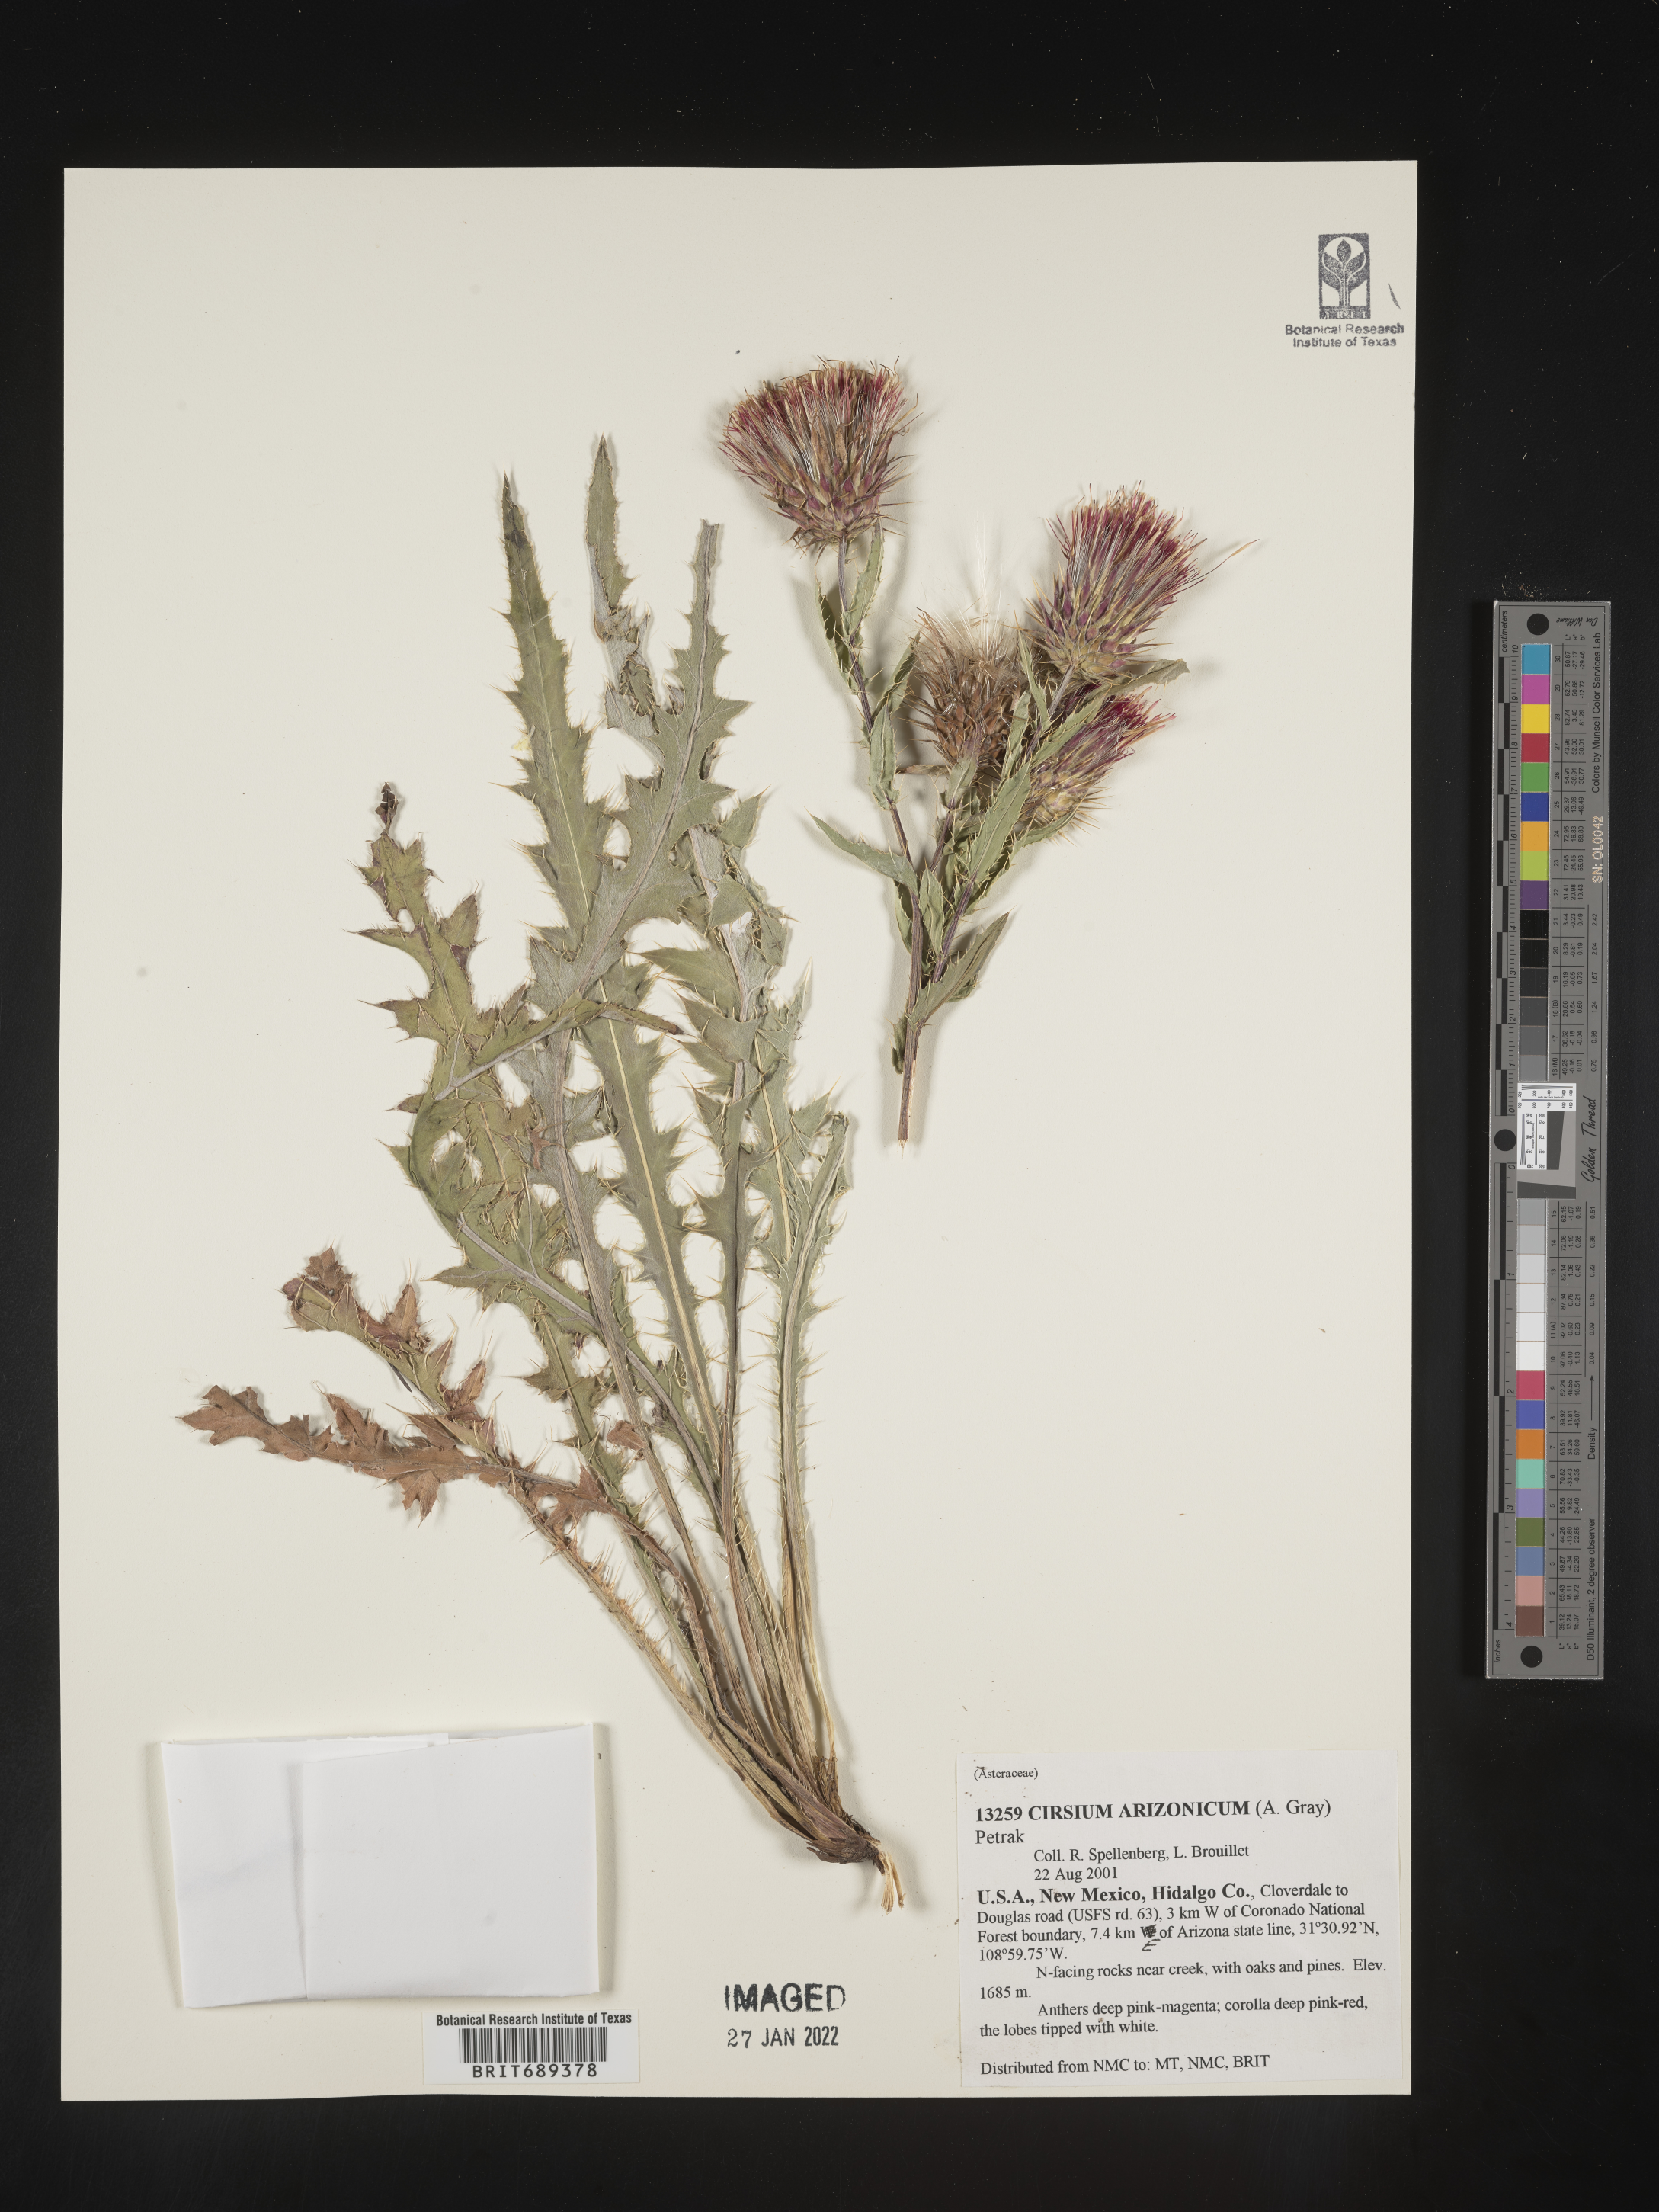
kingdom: Plantae
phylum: Tracheophyta
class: Magnoliopsida
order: Asterales
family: Asteraceae
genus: Cirsium
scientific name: Cirsium arizonicum
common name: Arizona thistle
